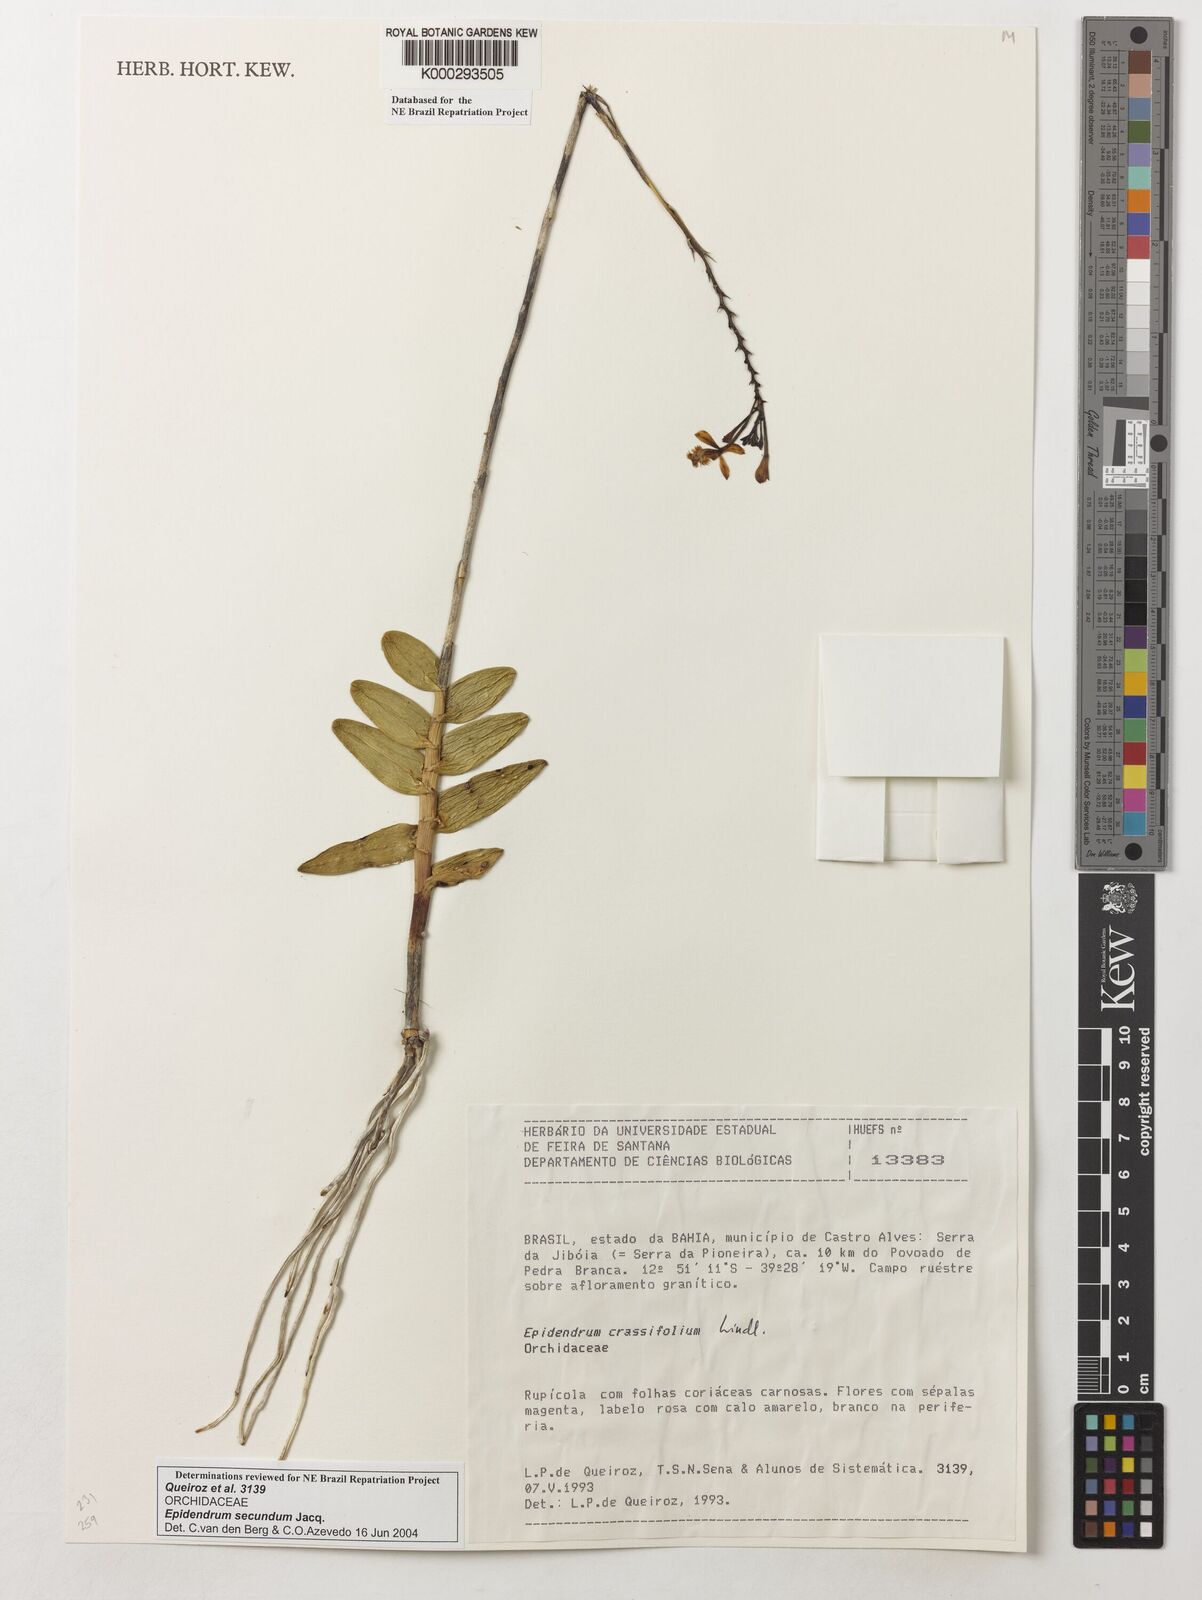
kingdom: Plantae
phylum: Tracheophyta
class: Liliopsida
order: Asparagales
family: Orchidaceae
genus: Epidendrum
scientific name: Epidendrum secundum
